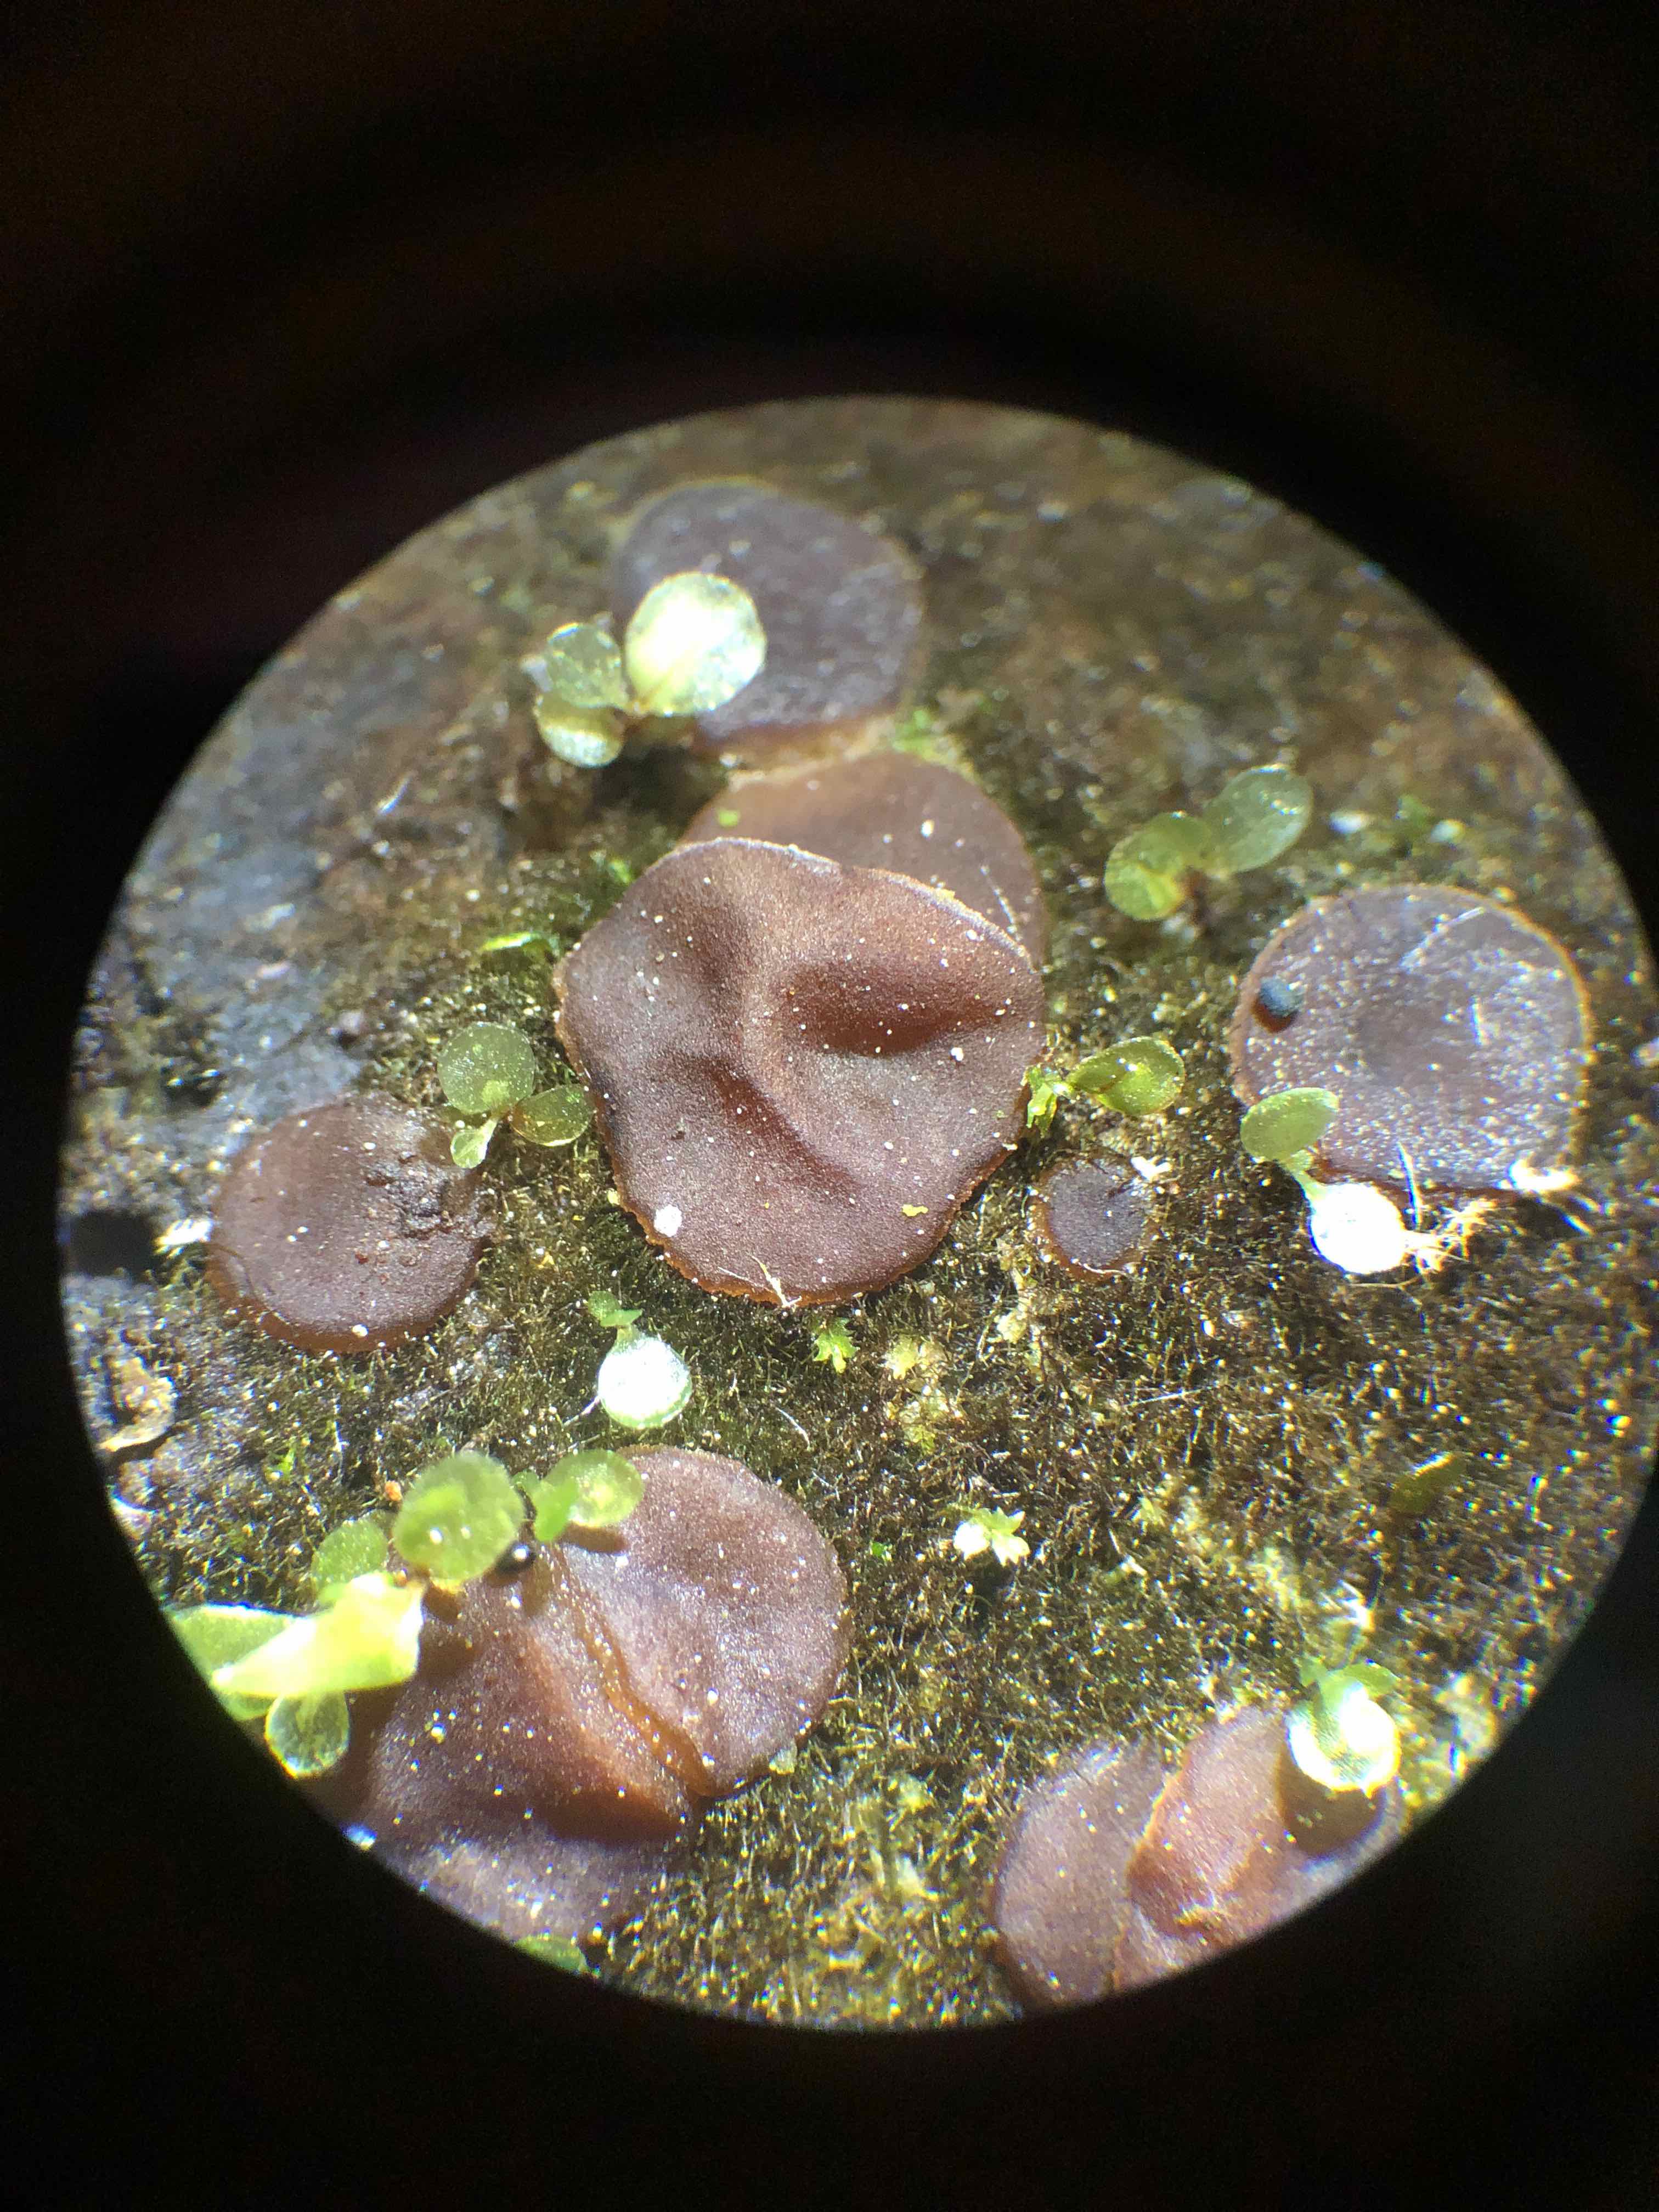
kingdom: Fungi
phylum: Ascomycota
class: Pezizomycetes
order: Pezizales
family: Pezizaceae
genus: Adelphella
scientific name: Adelphella babingtonii
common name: almindelig bækbæger
